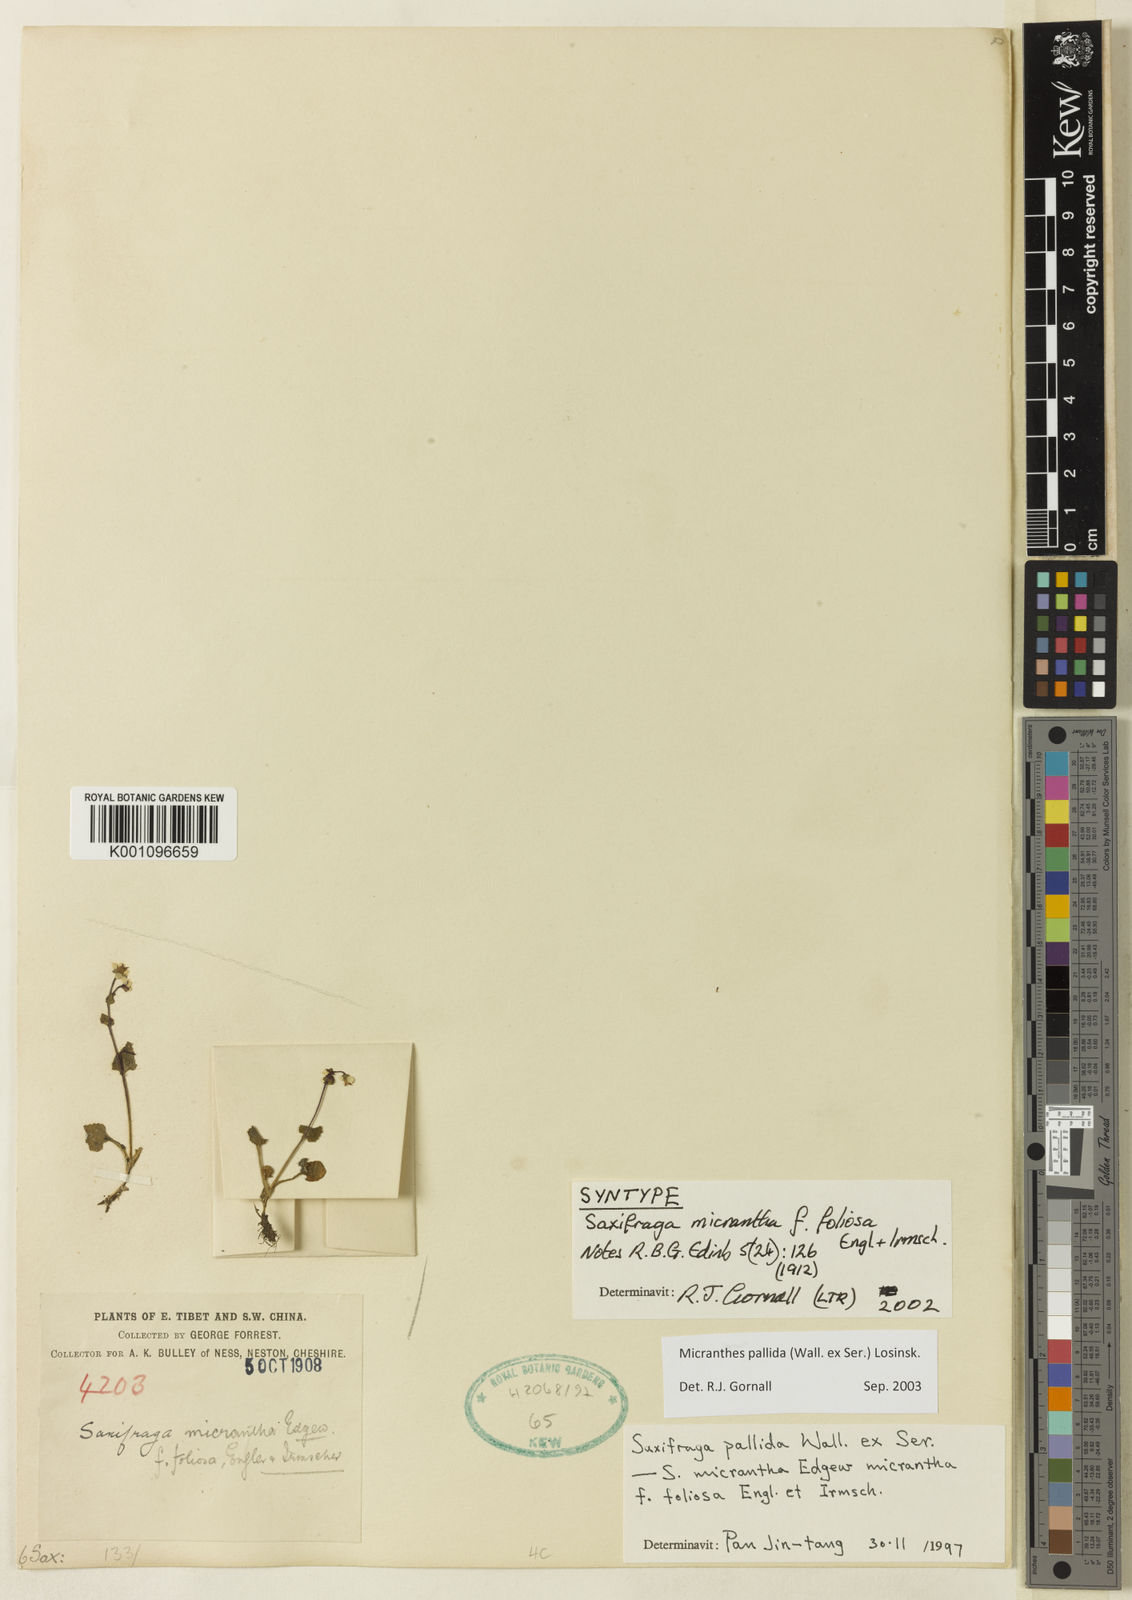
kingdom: Plantae
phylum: Tracheophyta
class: Magnoliopsida
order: Saxifragales
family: Saxifragaceae
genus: Micranthes
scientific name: Micranthes pallida
